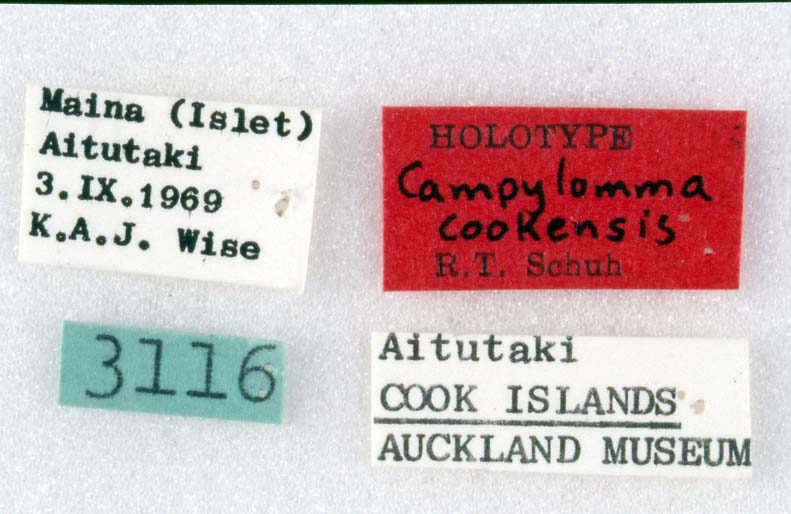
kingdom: Animalia
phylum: Arthropoda
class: Insecta
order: Hemiptera
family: Miridae
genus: Campylomma
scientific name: Campylomma cookensis
